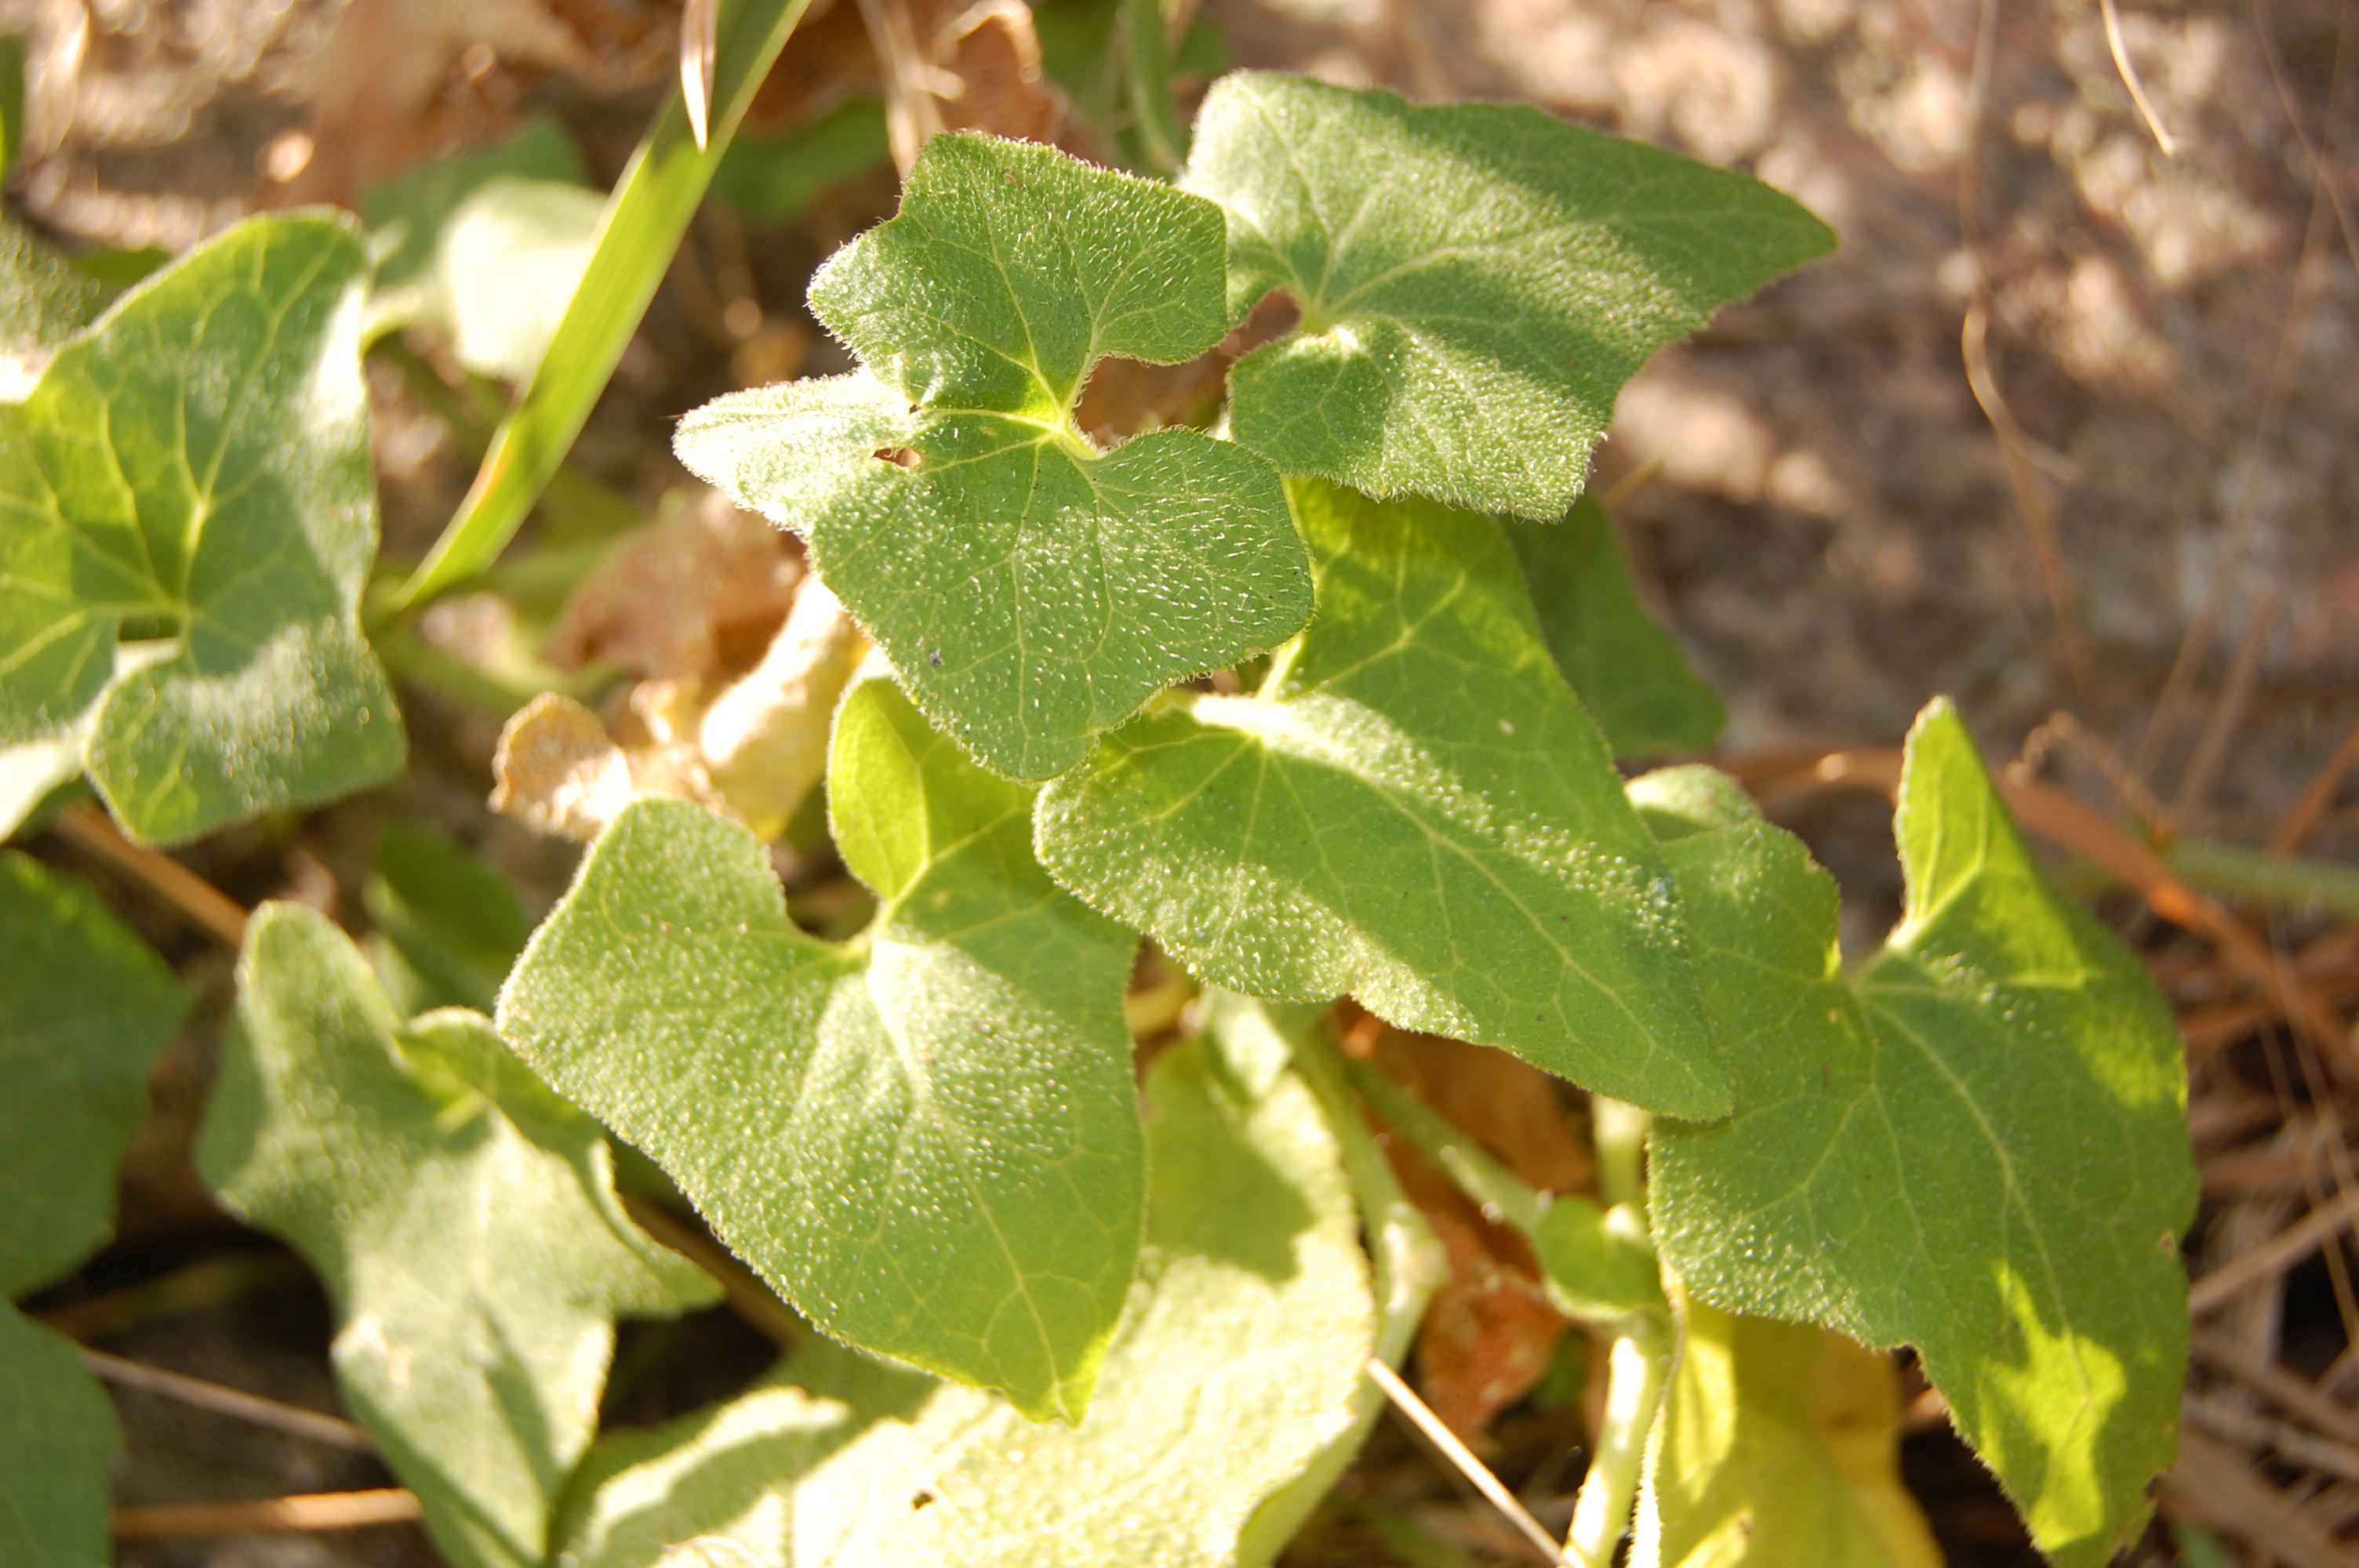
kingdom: Plantae
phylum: Tracheophyta
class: Magnoliopsida
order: Cucurbitales
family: Cucurbitaceae
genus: Bryonia
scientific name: Bryonia dioica
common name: White bryony
